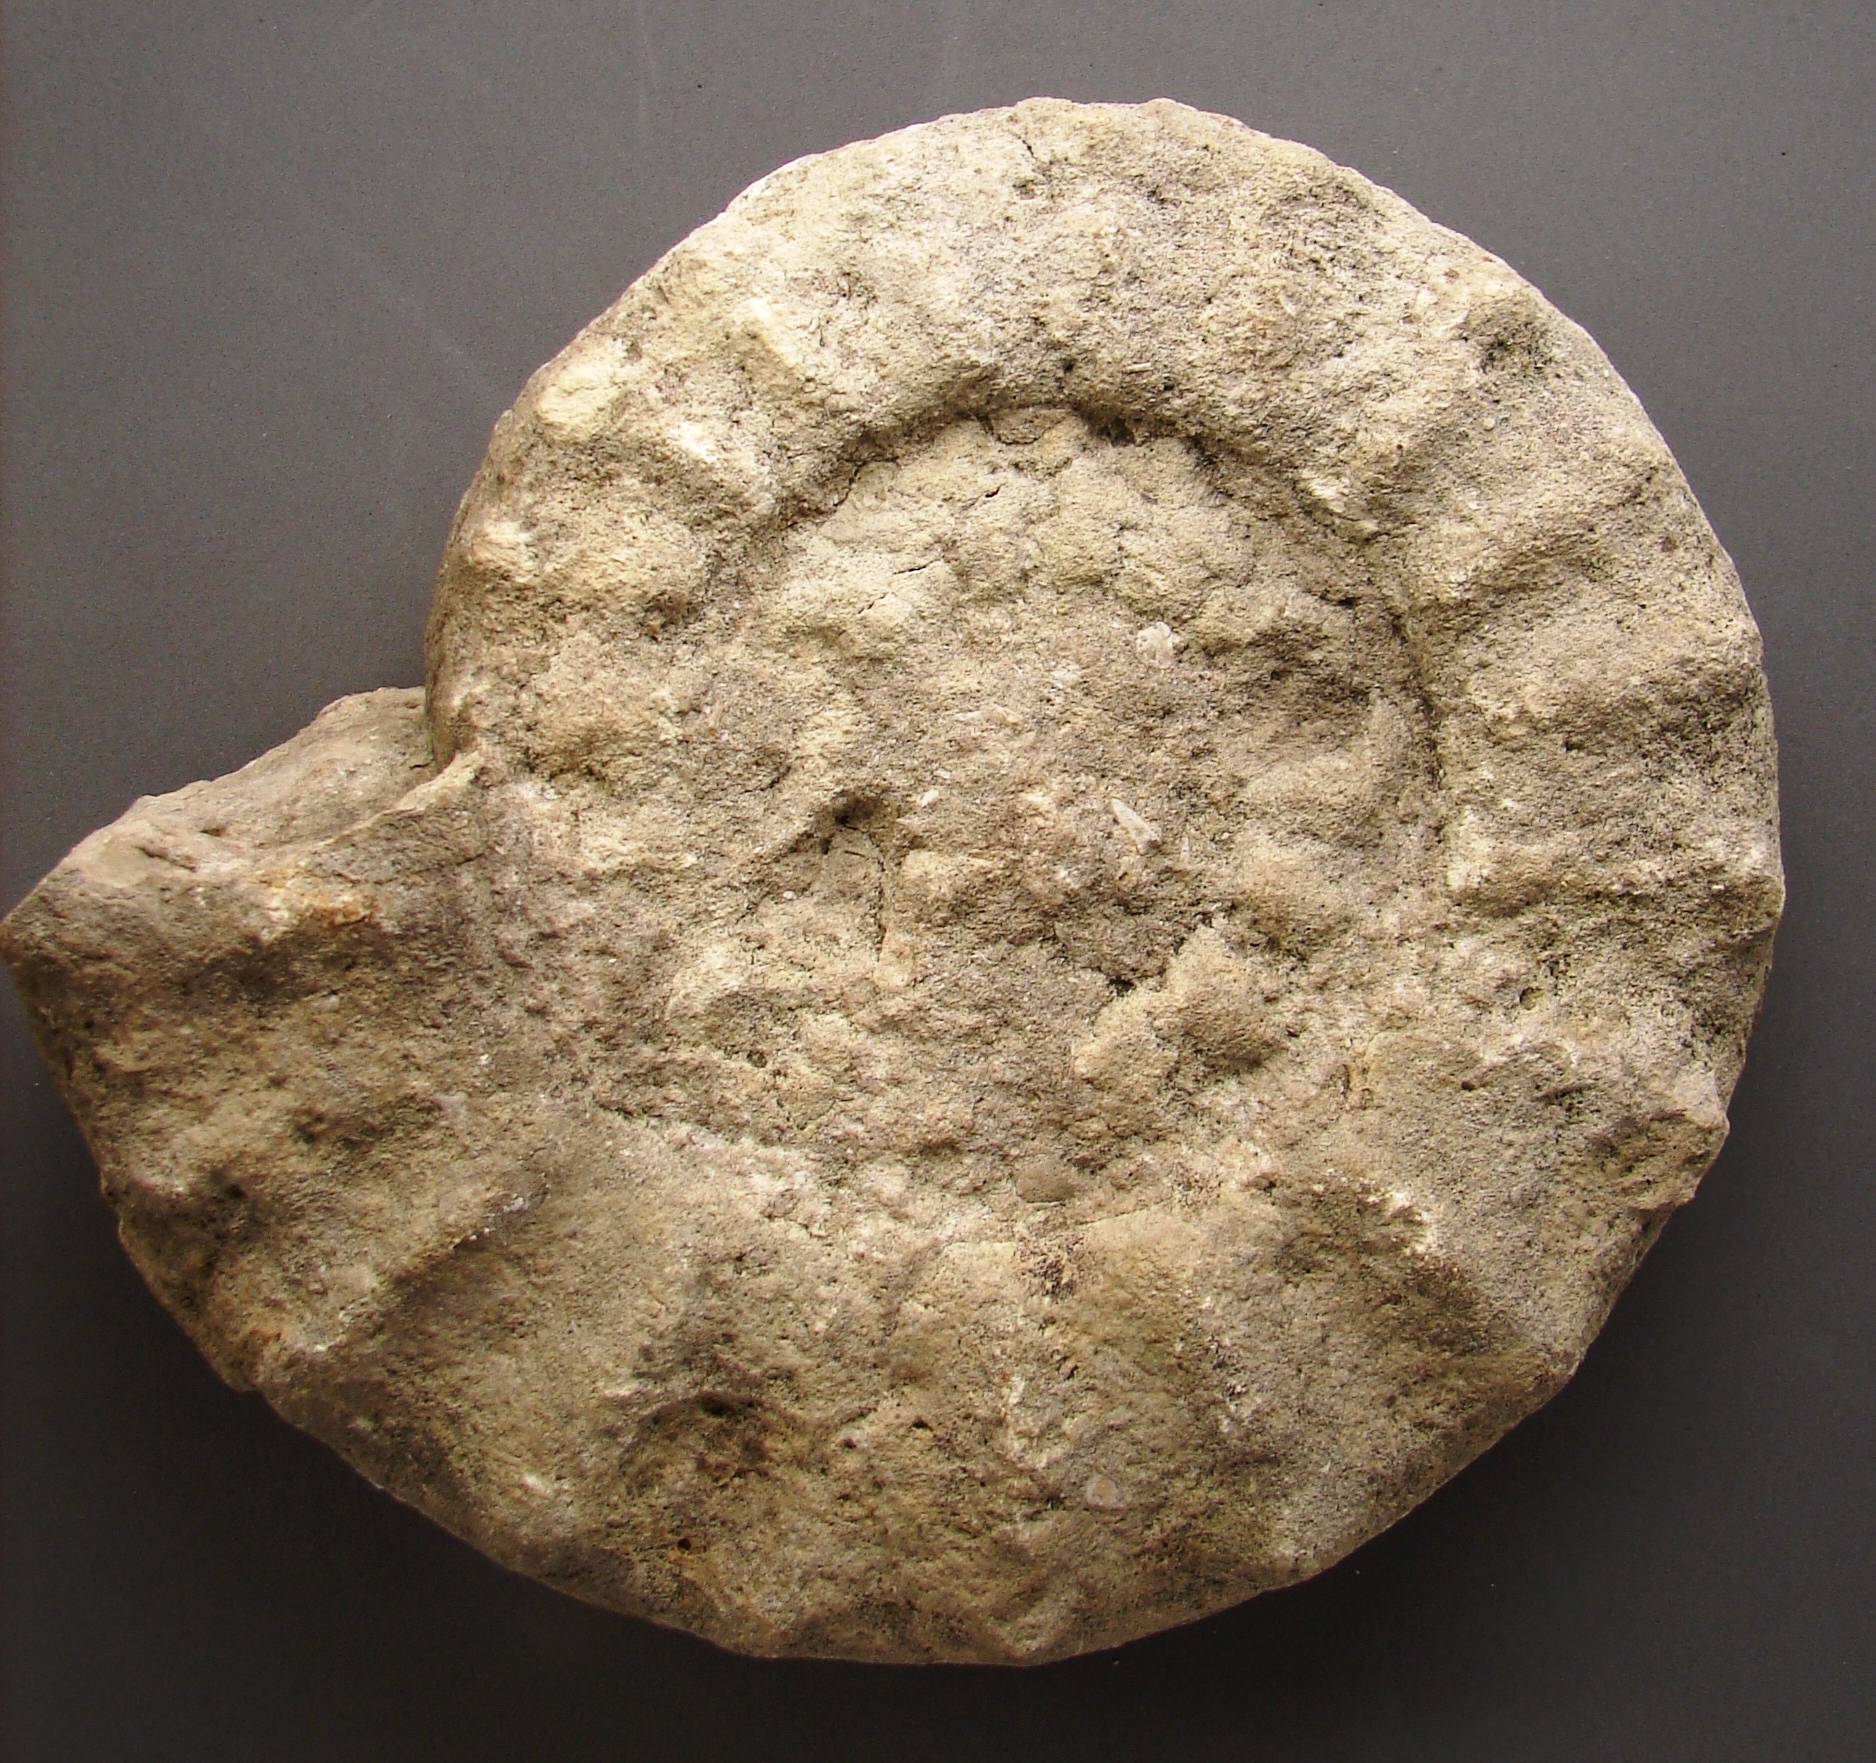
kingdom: Chromista
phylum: Ochrophyta
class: Bacillariophyceae
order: Chaetocerotales
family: Acanthocerataceae
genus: Gauthiericeras
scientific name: Gauthiericeras margae
